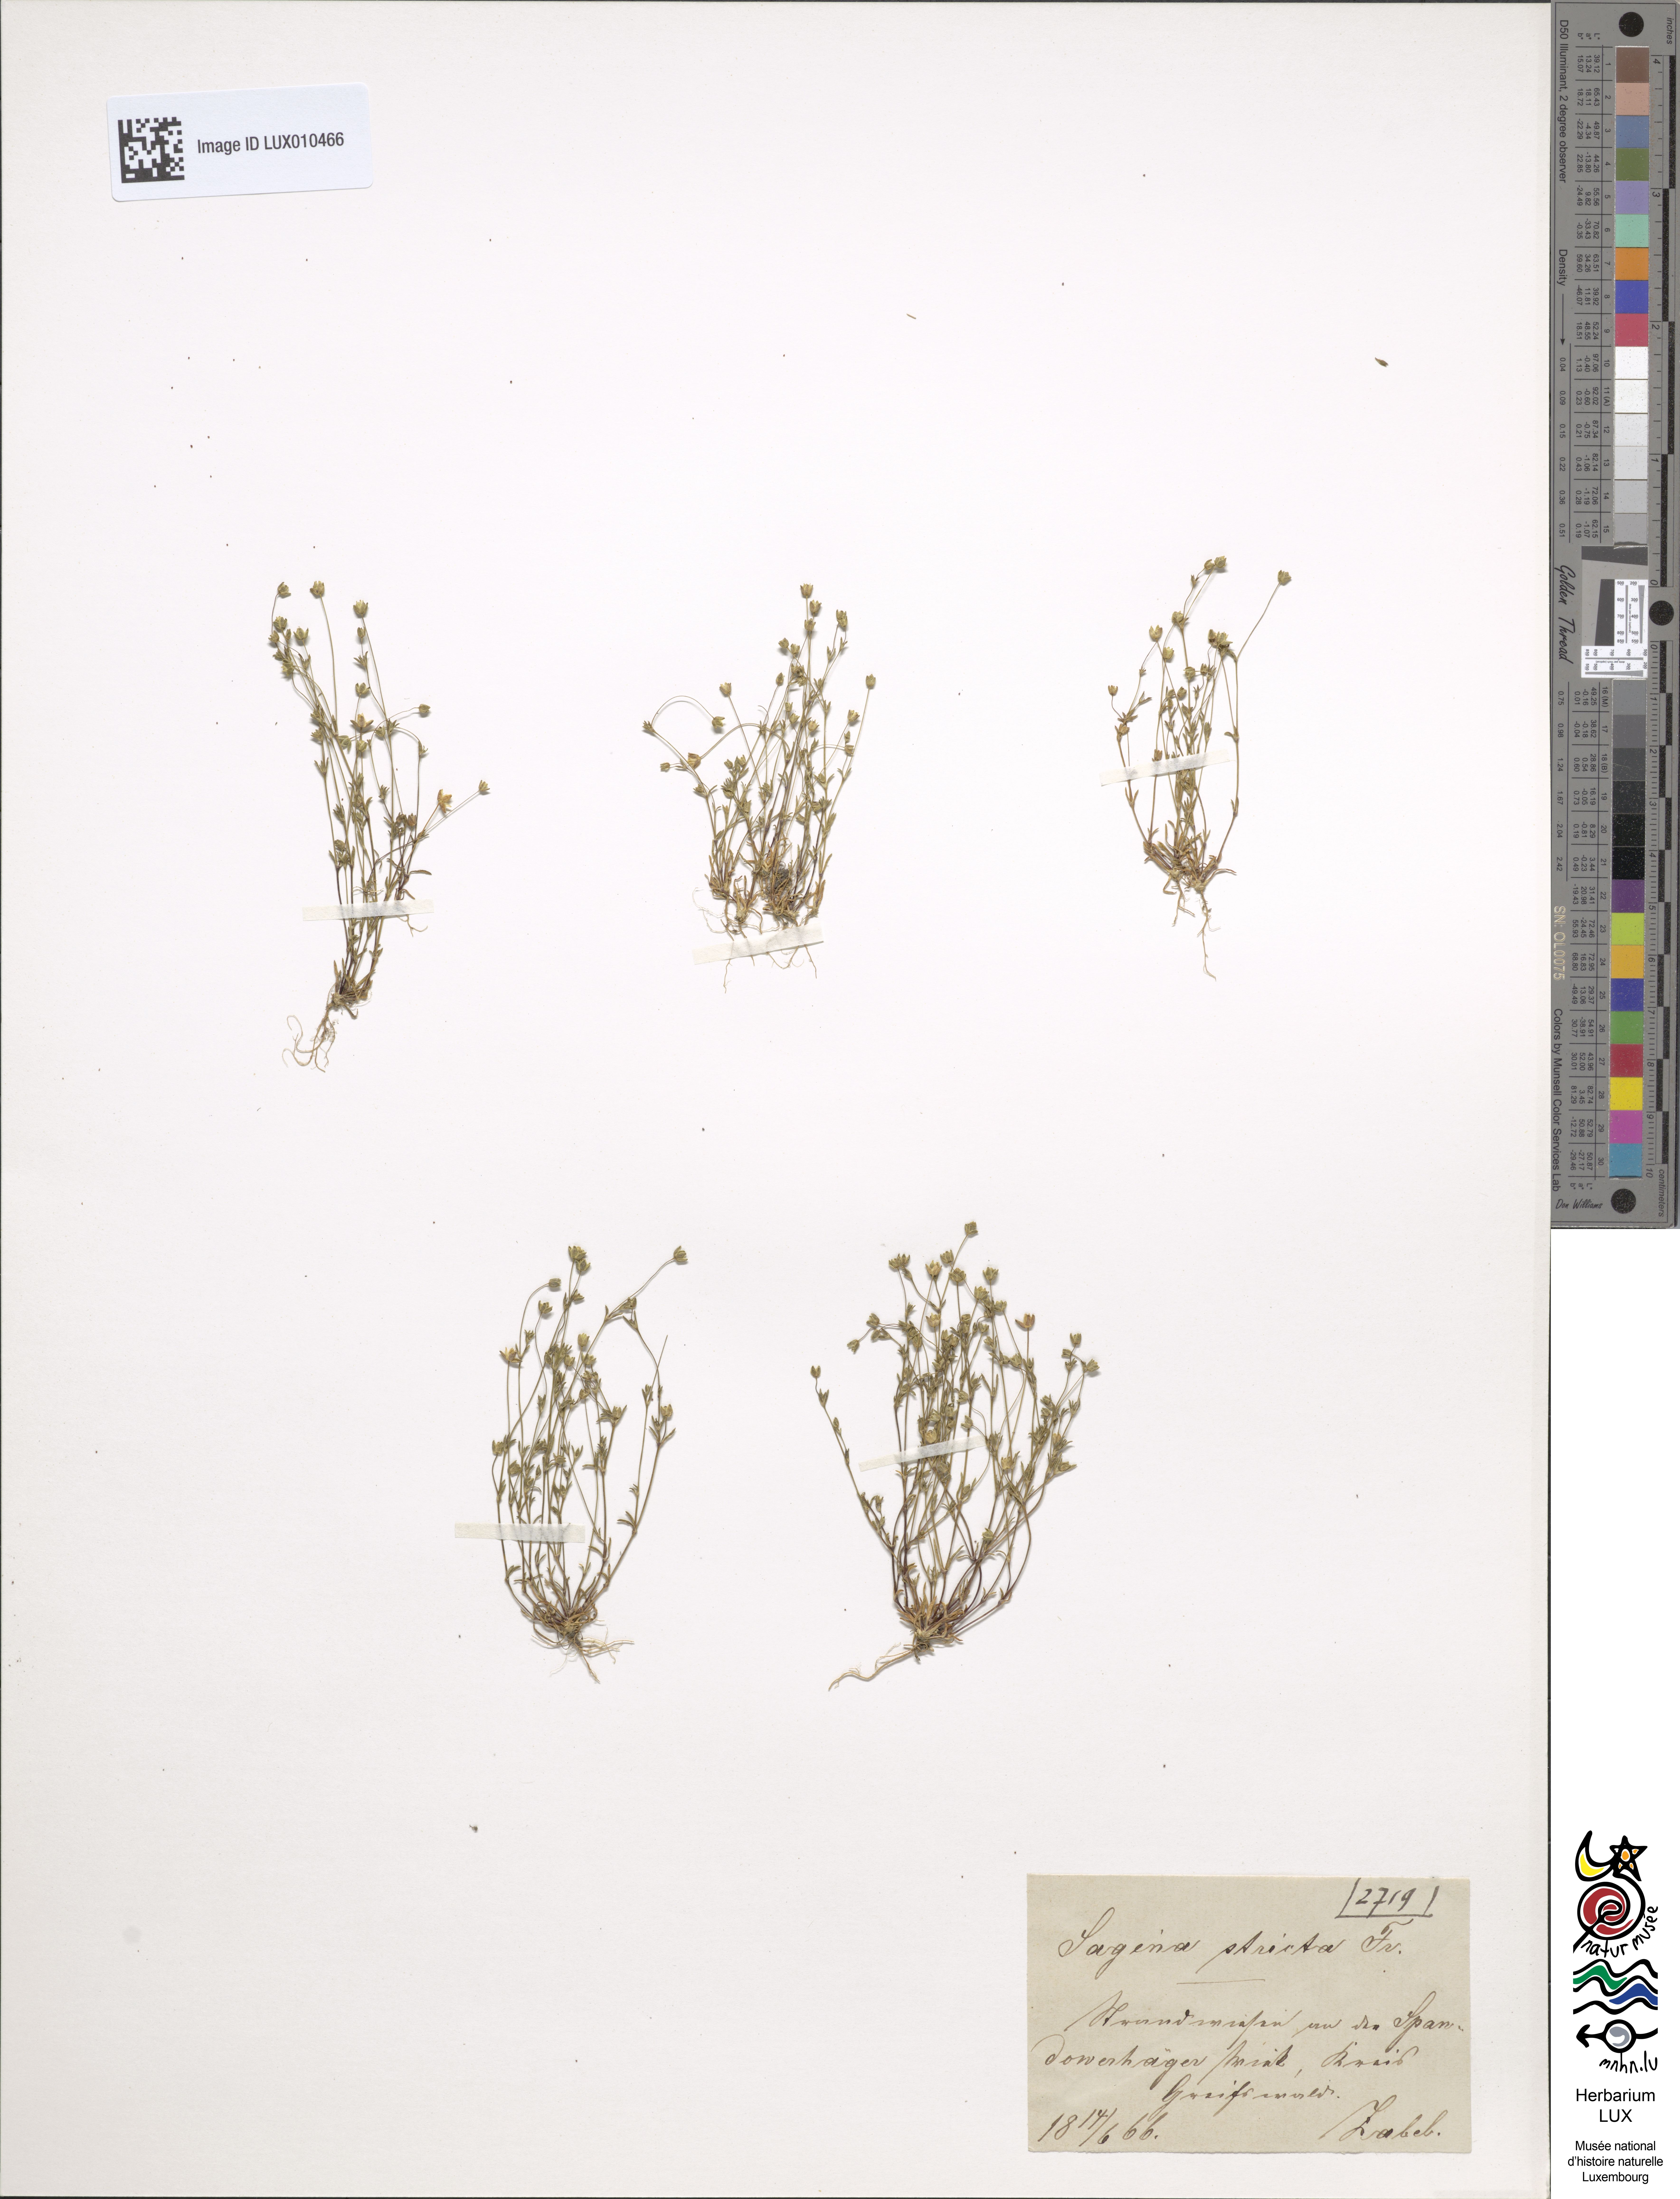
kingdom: Plantae
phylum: Tracheophyta
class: Magnoliopsida
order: Caryophyllales
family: Caryophyllaceae
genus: Sagina
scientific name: Sagina maritima
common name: Sea pearlwort
